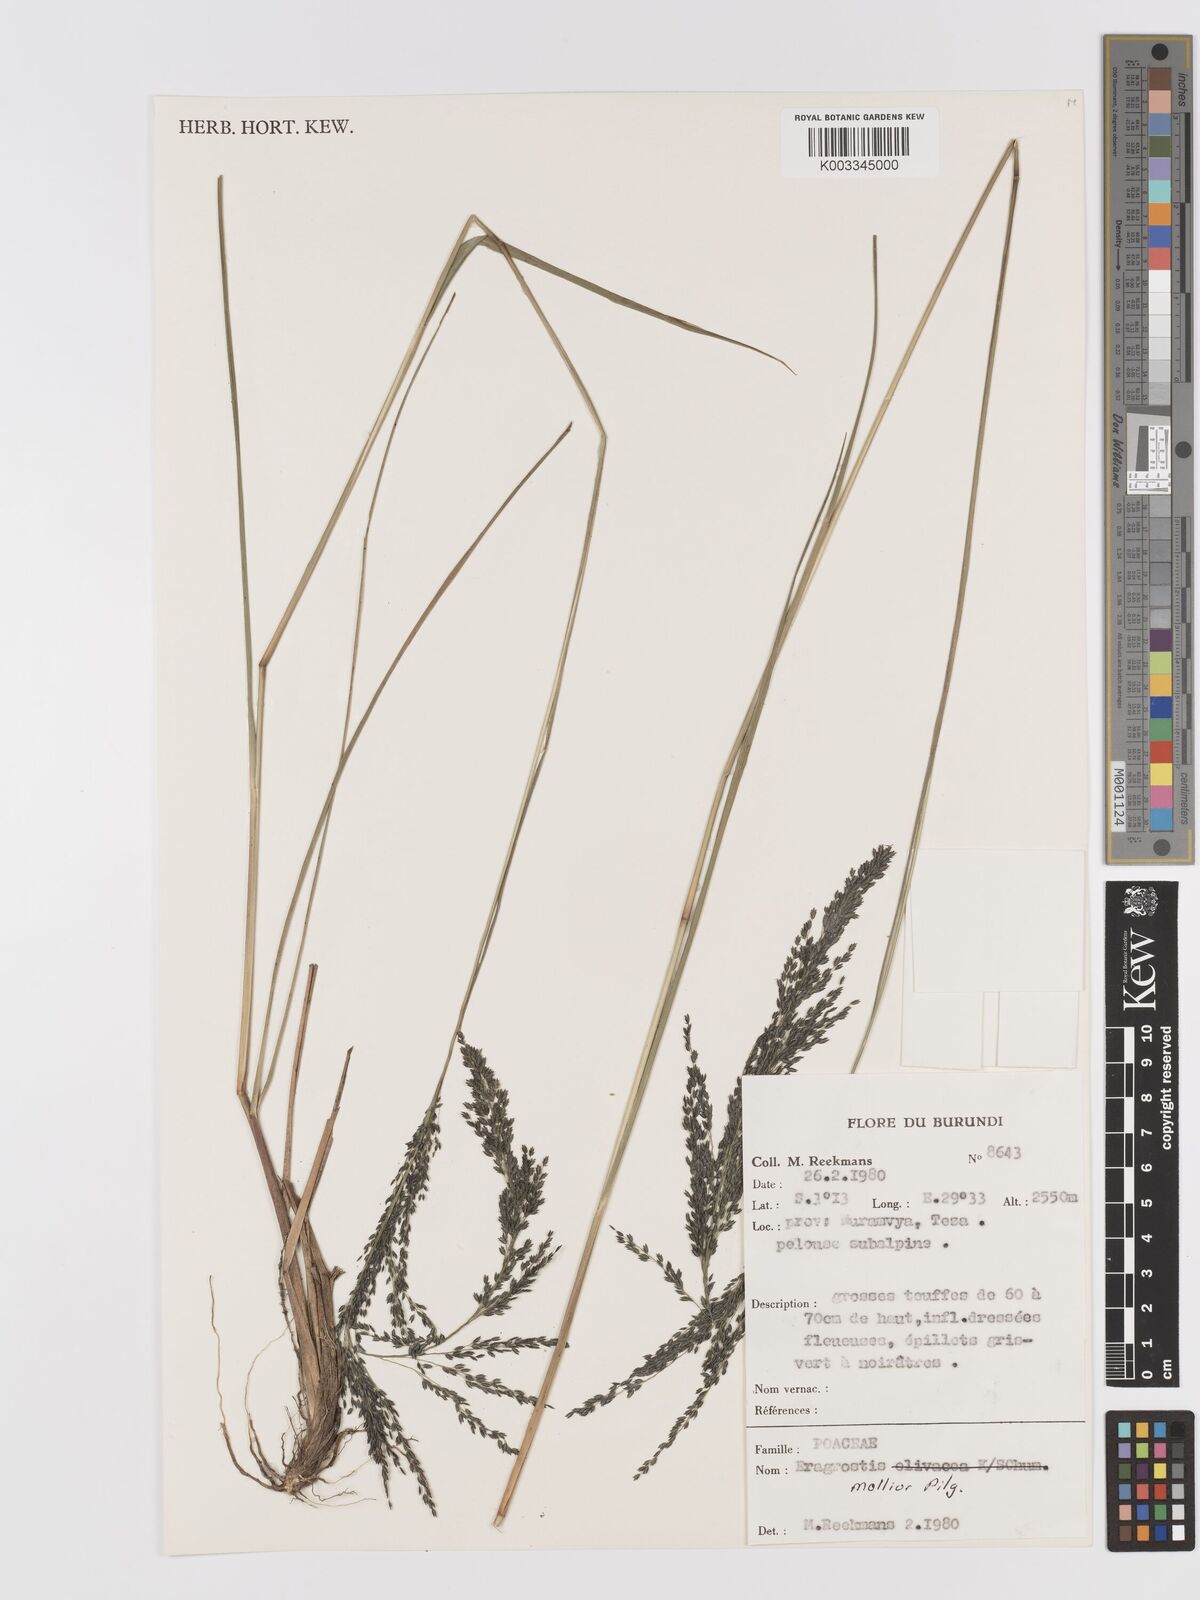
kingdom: Plantae
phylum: Tracheophyta
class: Liliopsida
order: Poales
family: Poaceae
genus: Eragrostis
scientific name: Eragrostis mollior
